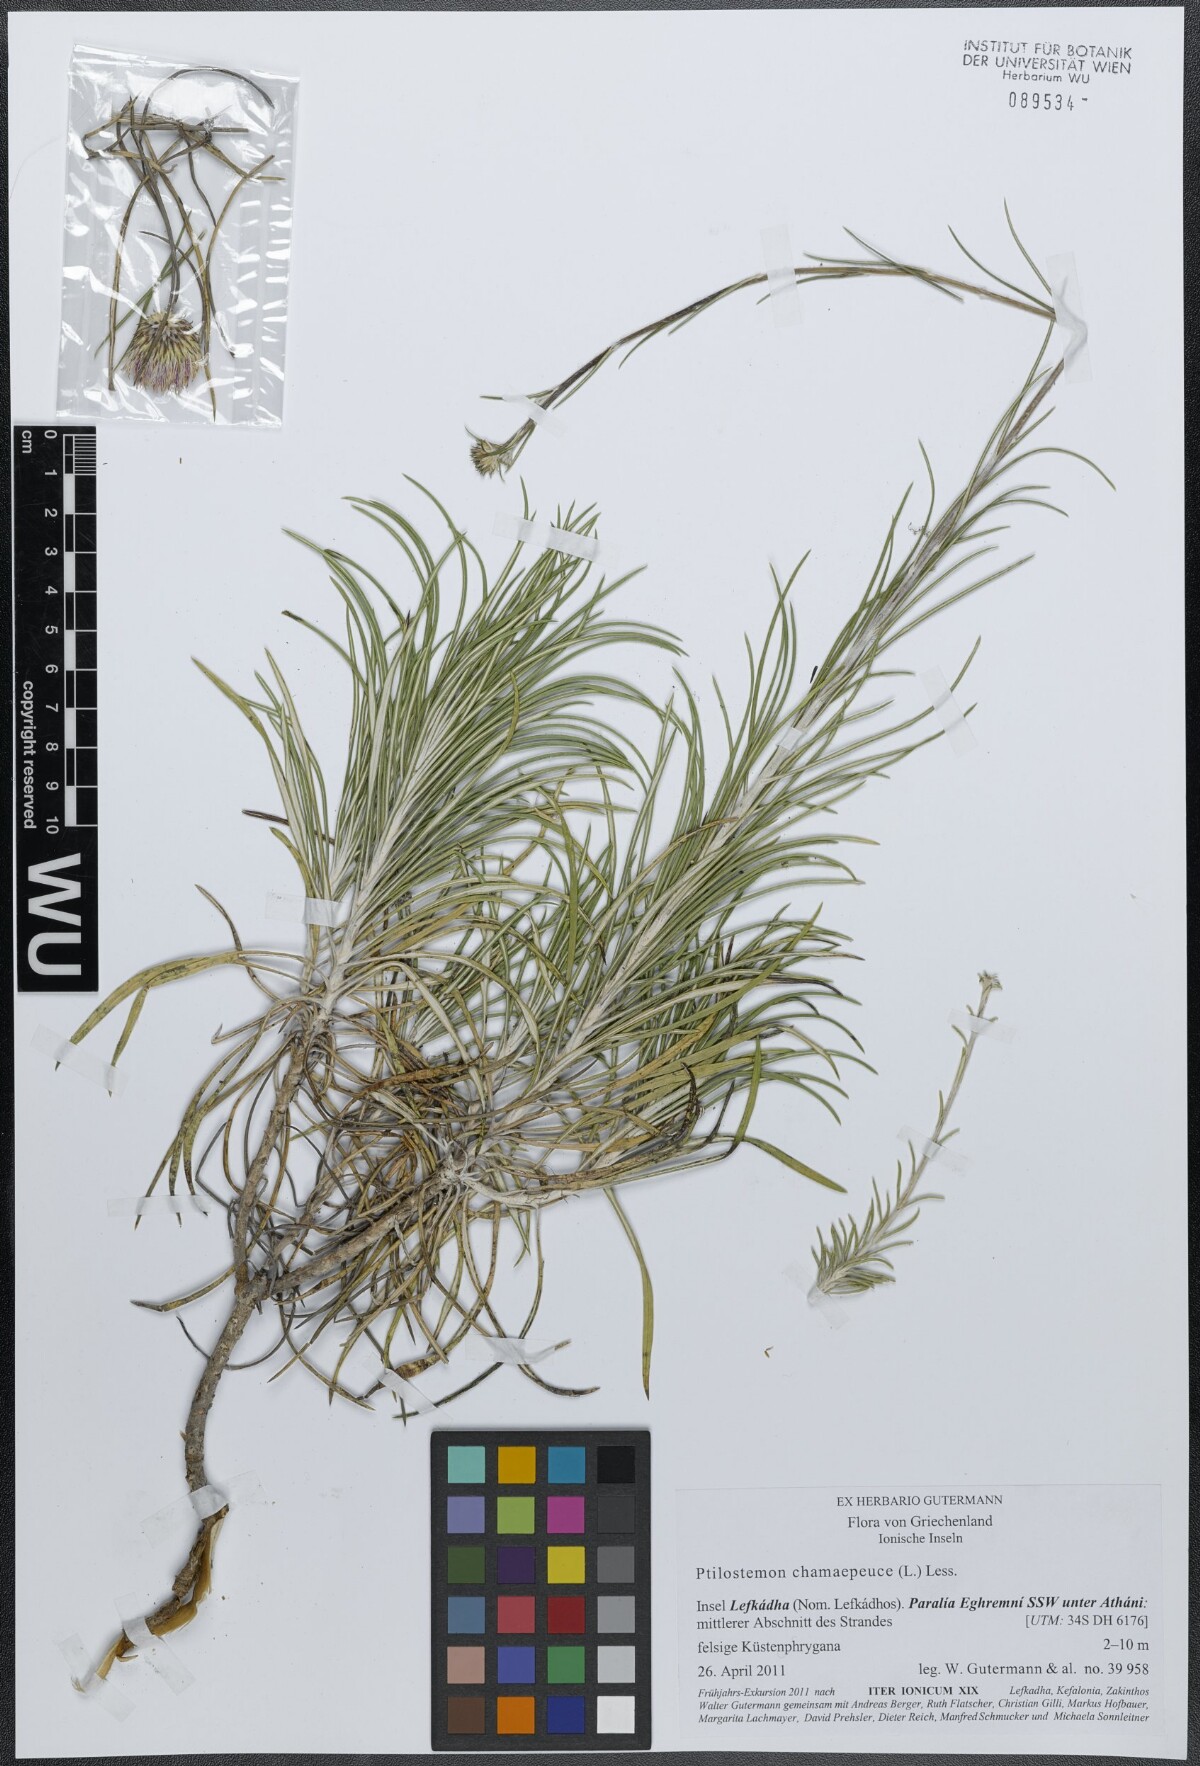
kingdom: Plantae
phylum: Tracheophyta
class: Magnoliopsida
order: Asterales
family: Asteraceae
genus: Ptilostemon
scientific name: Ptilostemon chamaepeuce
